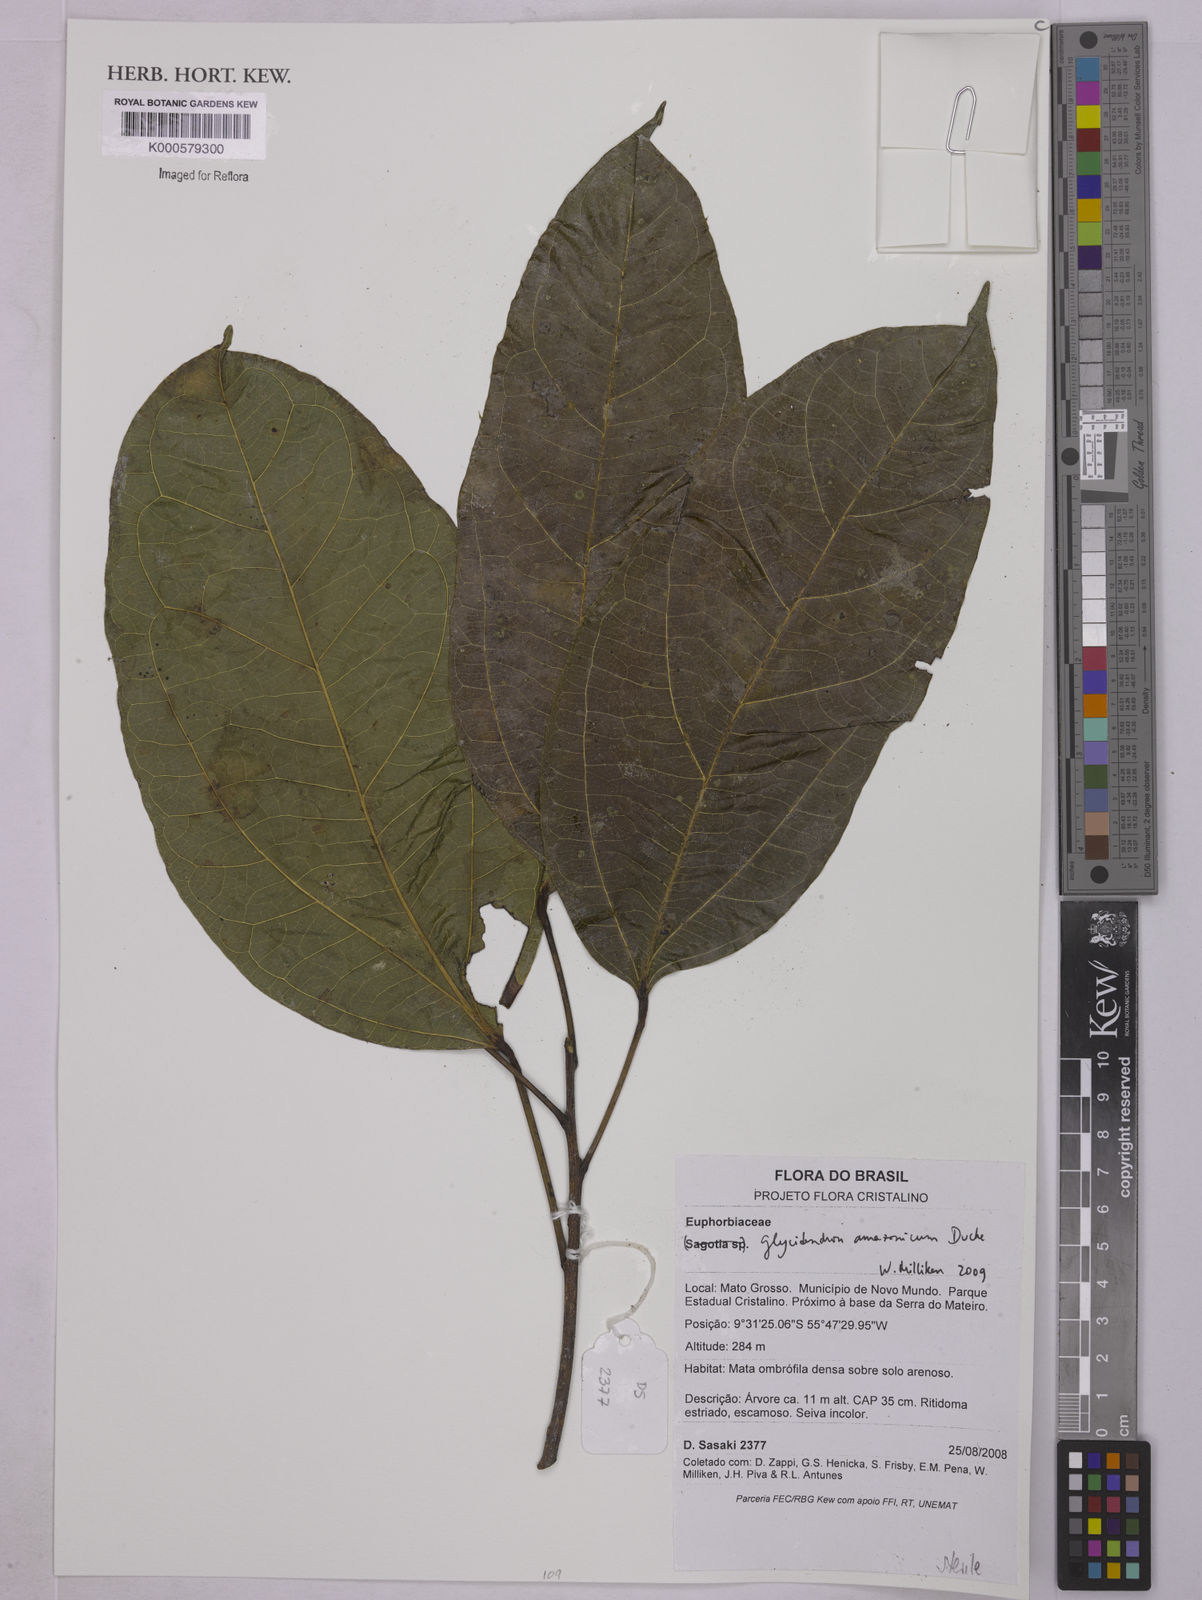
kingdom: Plantae
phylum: Tracheophyta
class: Magnoliopsida
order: Malpighiales
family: Euphorbiaceae
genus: Glycydendron
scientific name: Glycydendron amazonicum
